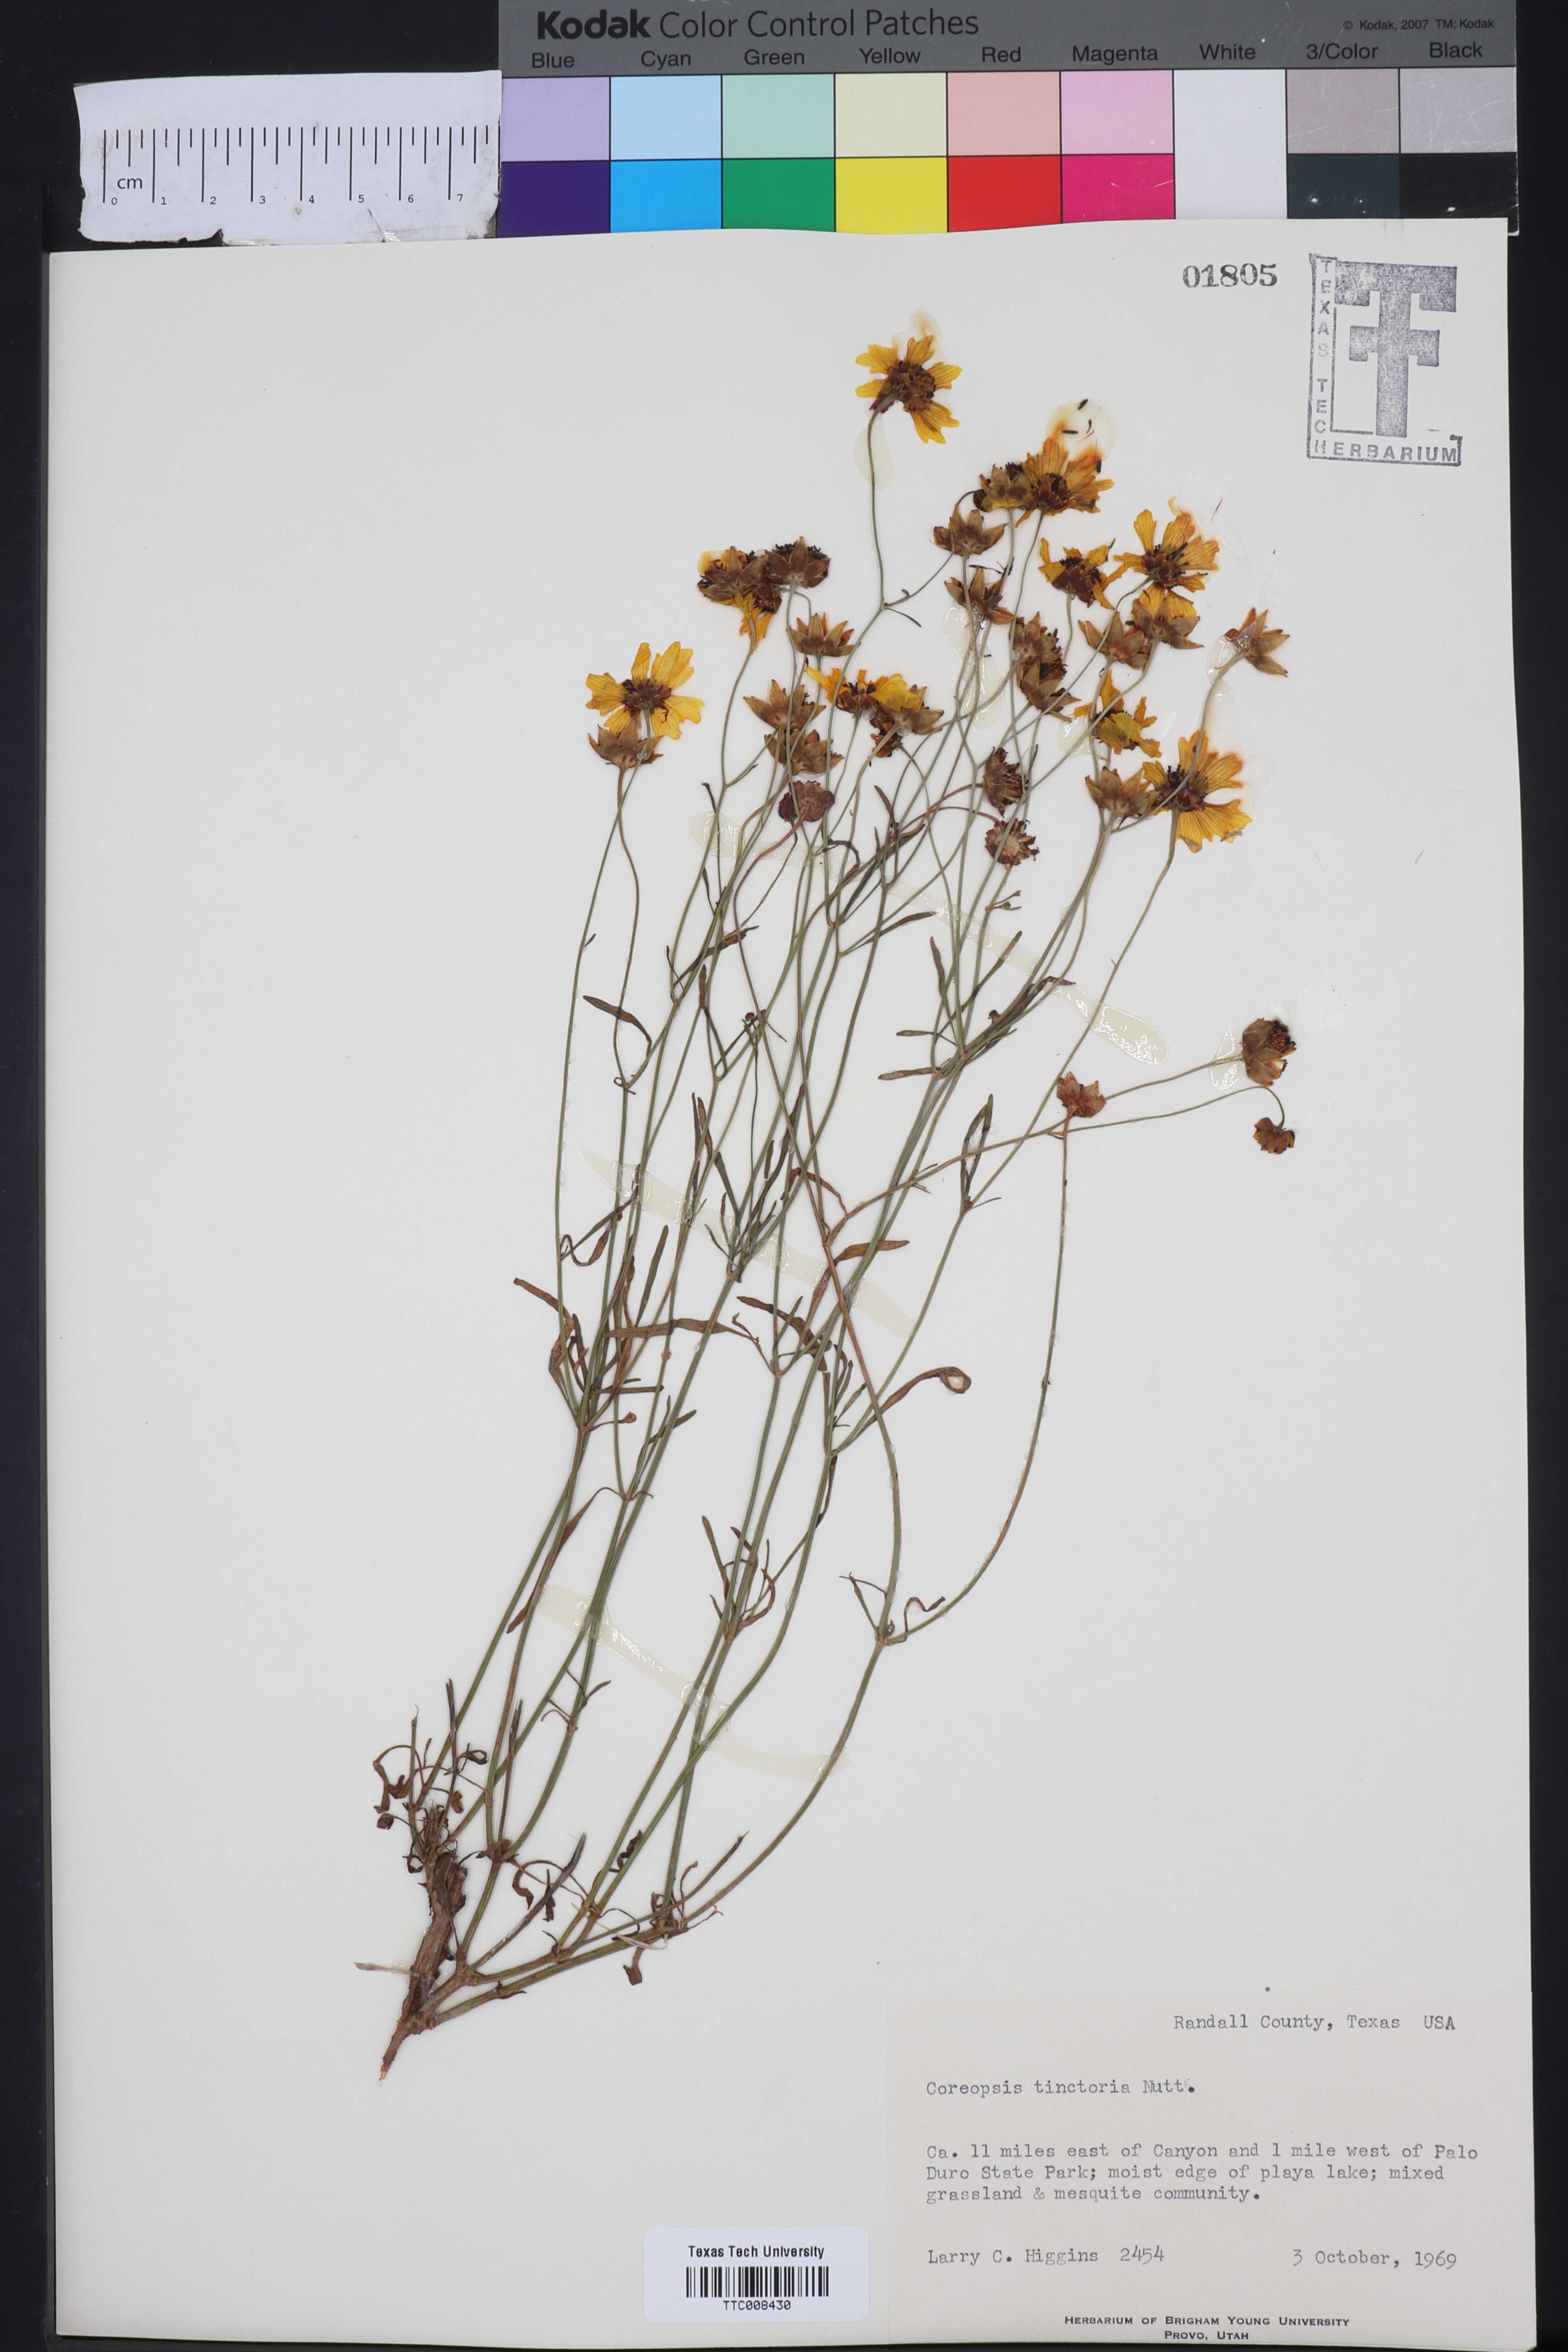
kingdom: Plantae
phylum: Tracheophyta
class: Magnoliopsida
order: Asterales
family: Asteraceae
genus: Coreopsis
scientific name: Coreopsis tinctoria
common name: Garden tickseed
